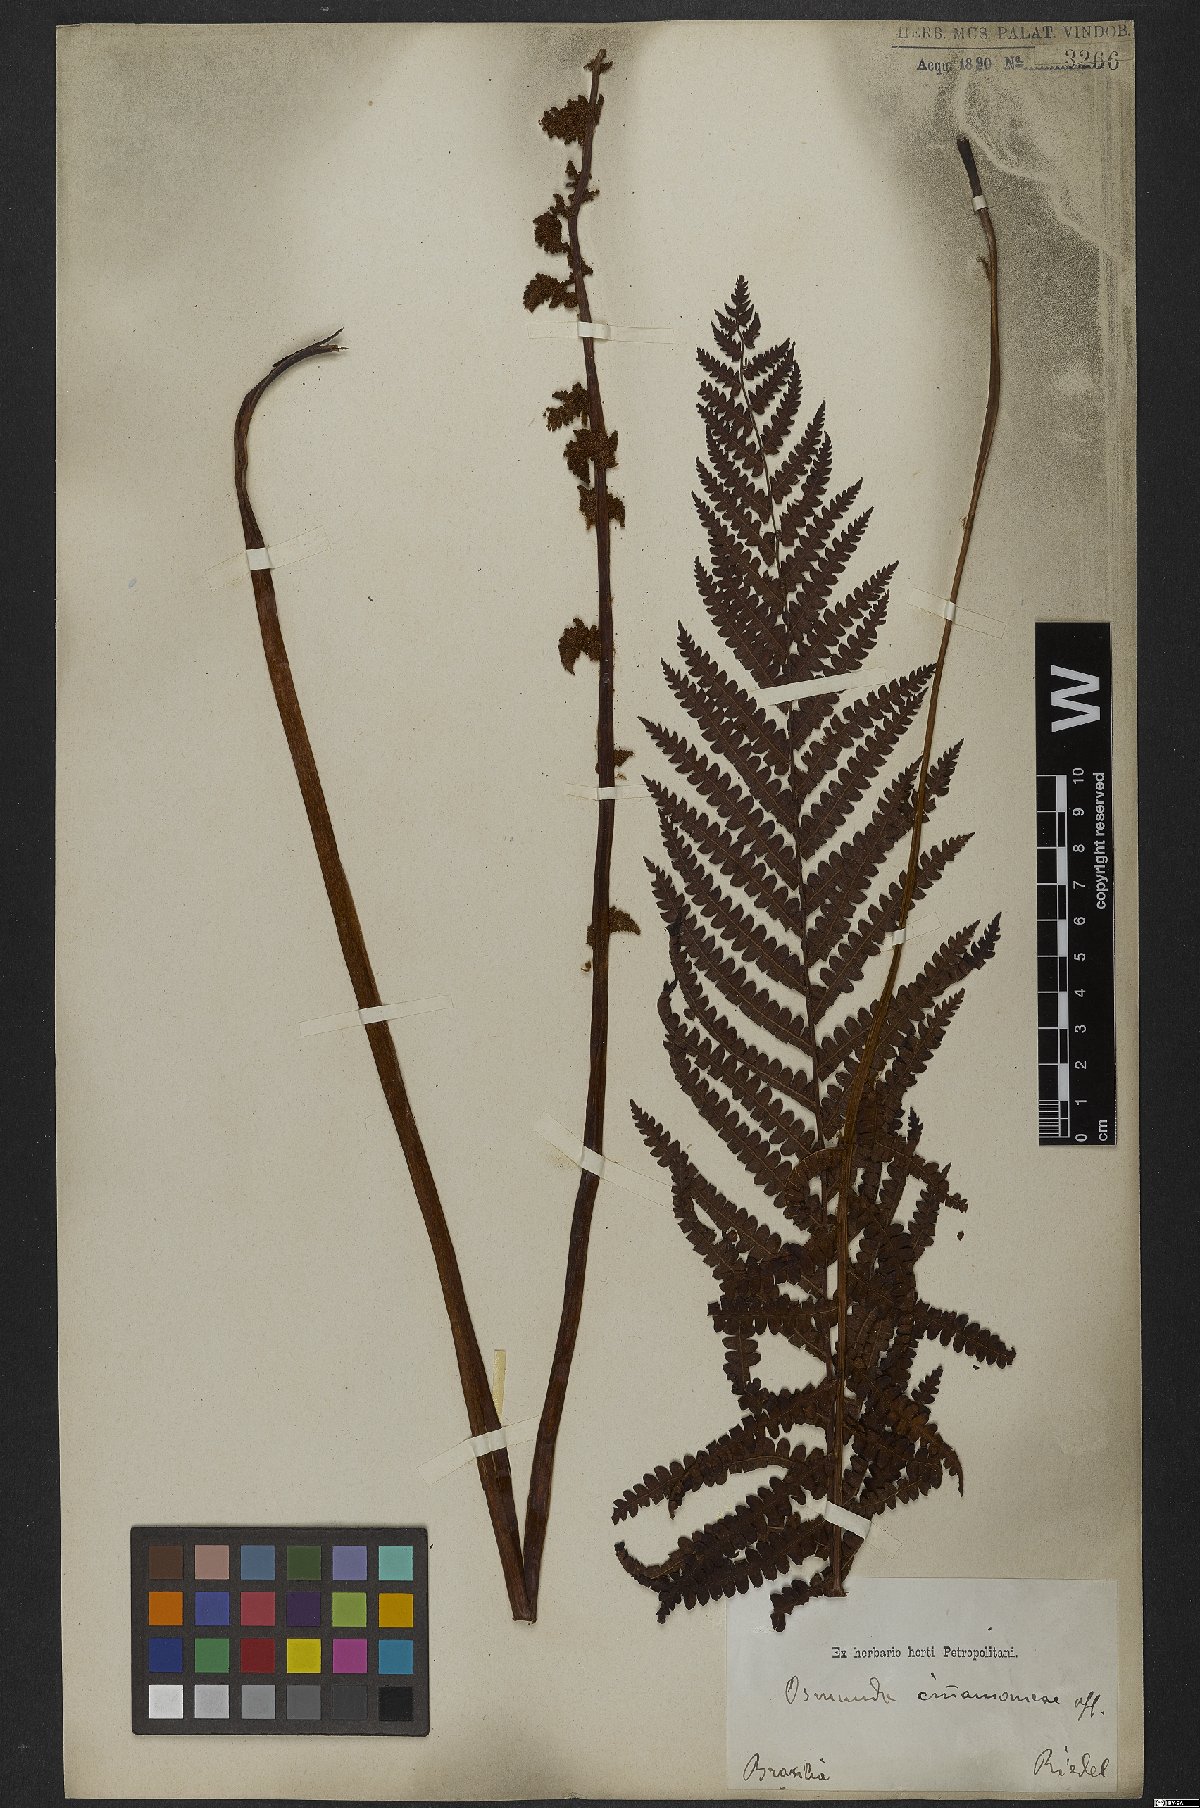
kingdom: Plantae
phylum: Tracheophyta
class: Polypodiopsida
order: Osmundales
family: Osmundaceae
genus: Osmundastrum
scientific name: Osmundastrum cinnamomeum
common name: Cinnamon fern
